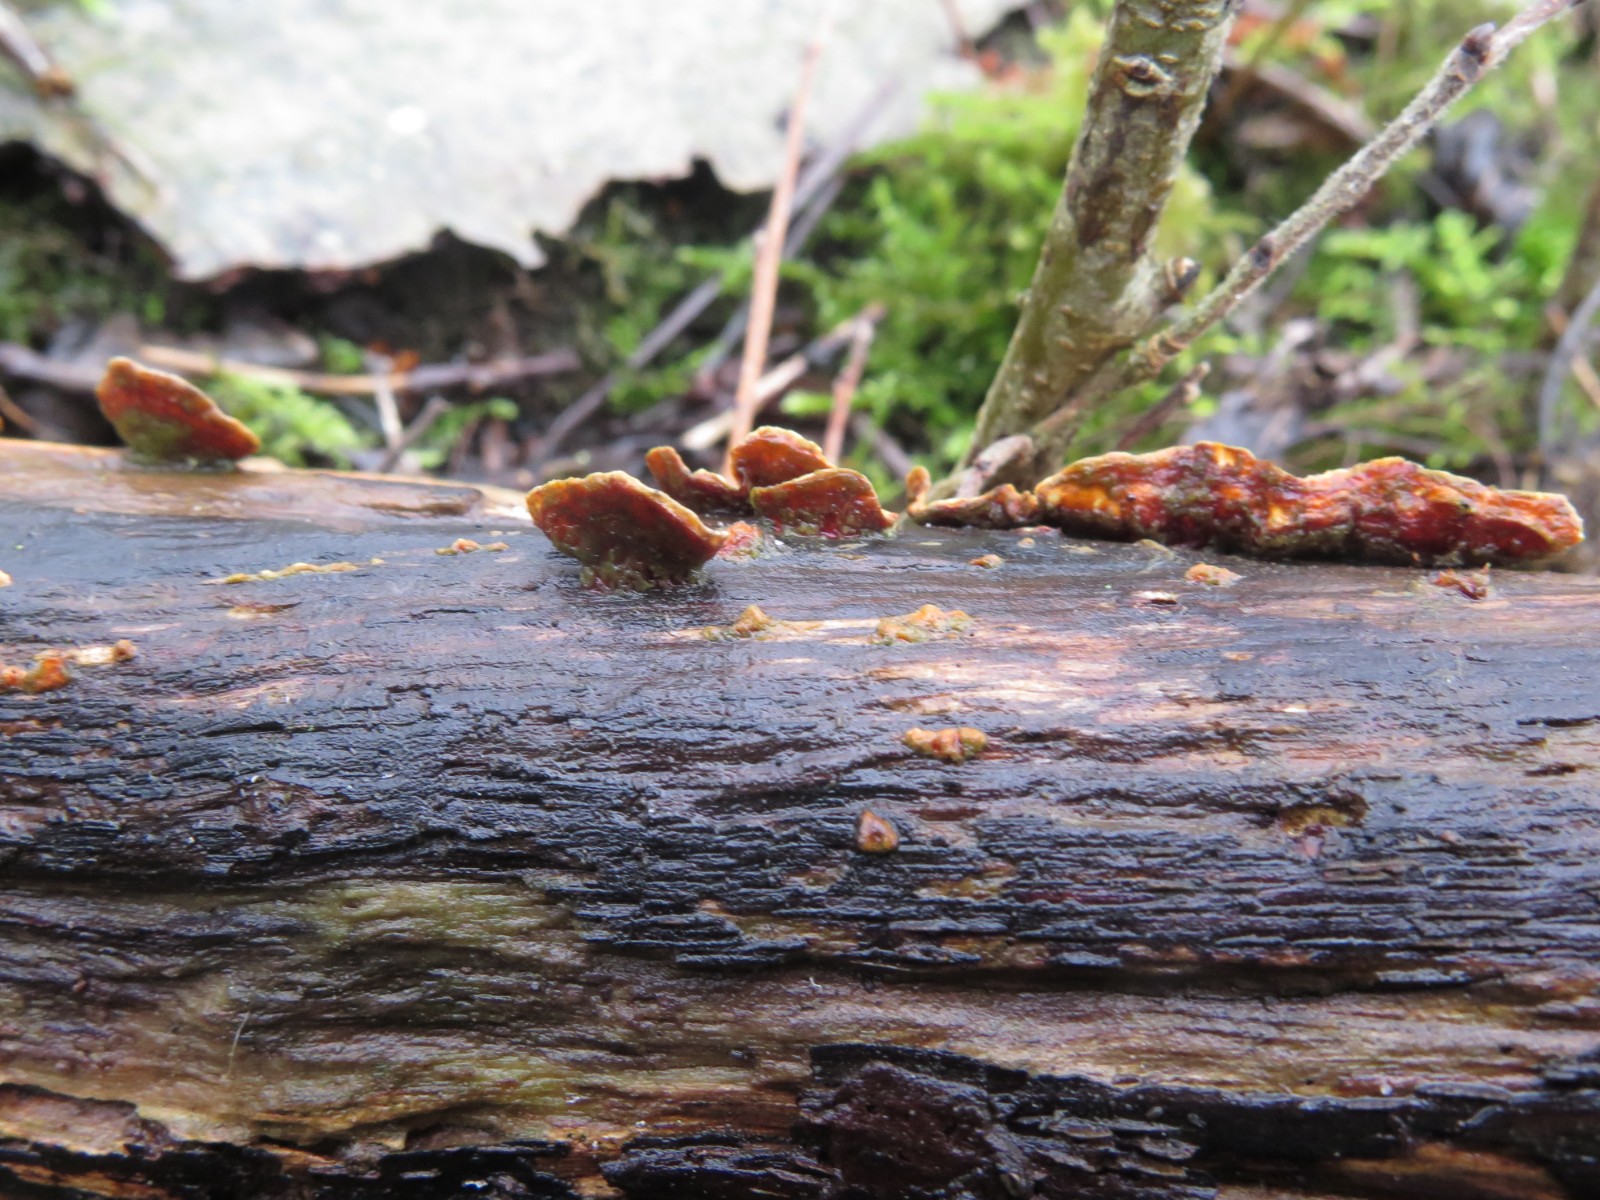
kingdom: Fungi
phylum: Basidiomycota
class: Agaricomycetes
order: Russulales
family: Stereaceae
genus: Stereum
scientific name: Stereum subtomentosum
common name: smuk lædersvamp
